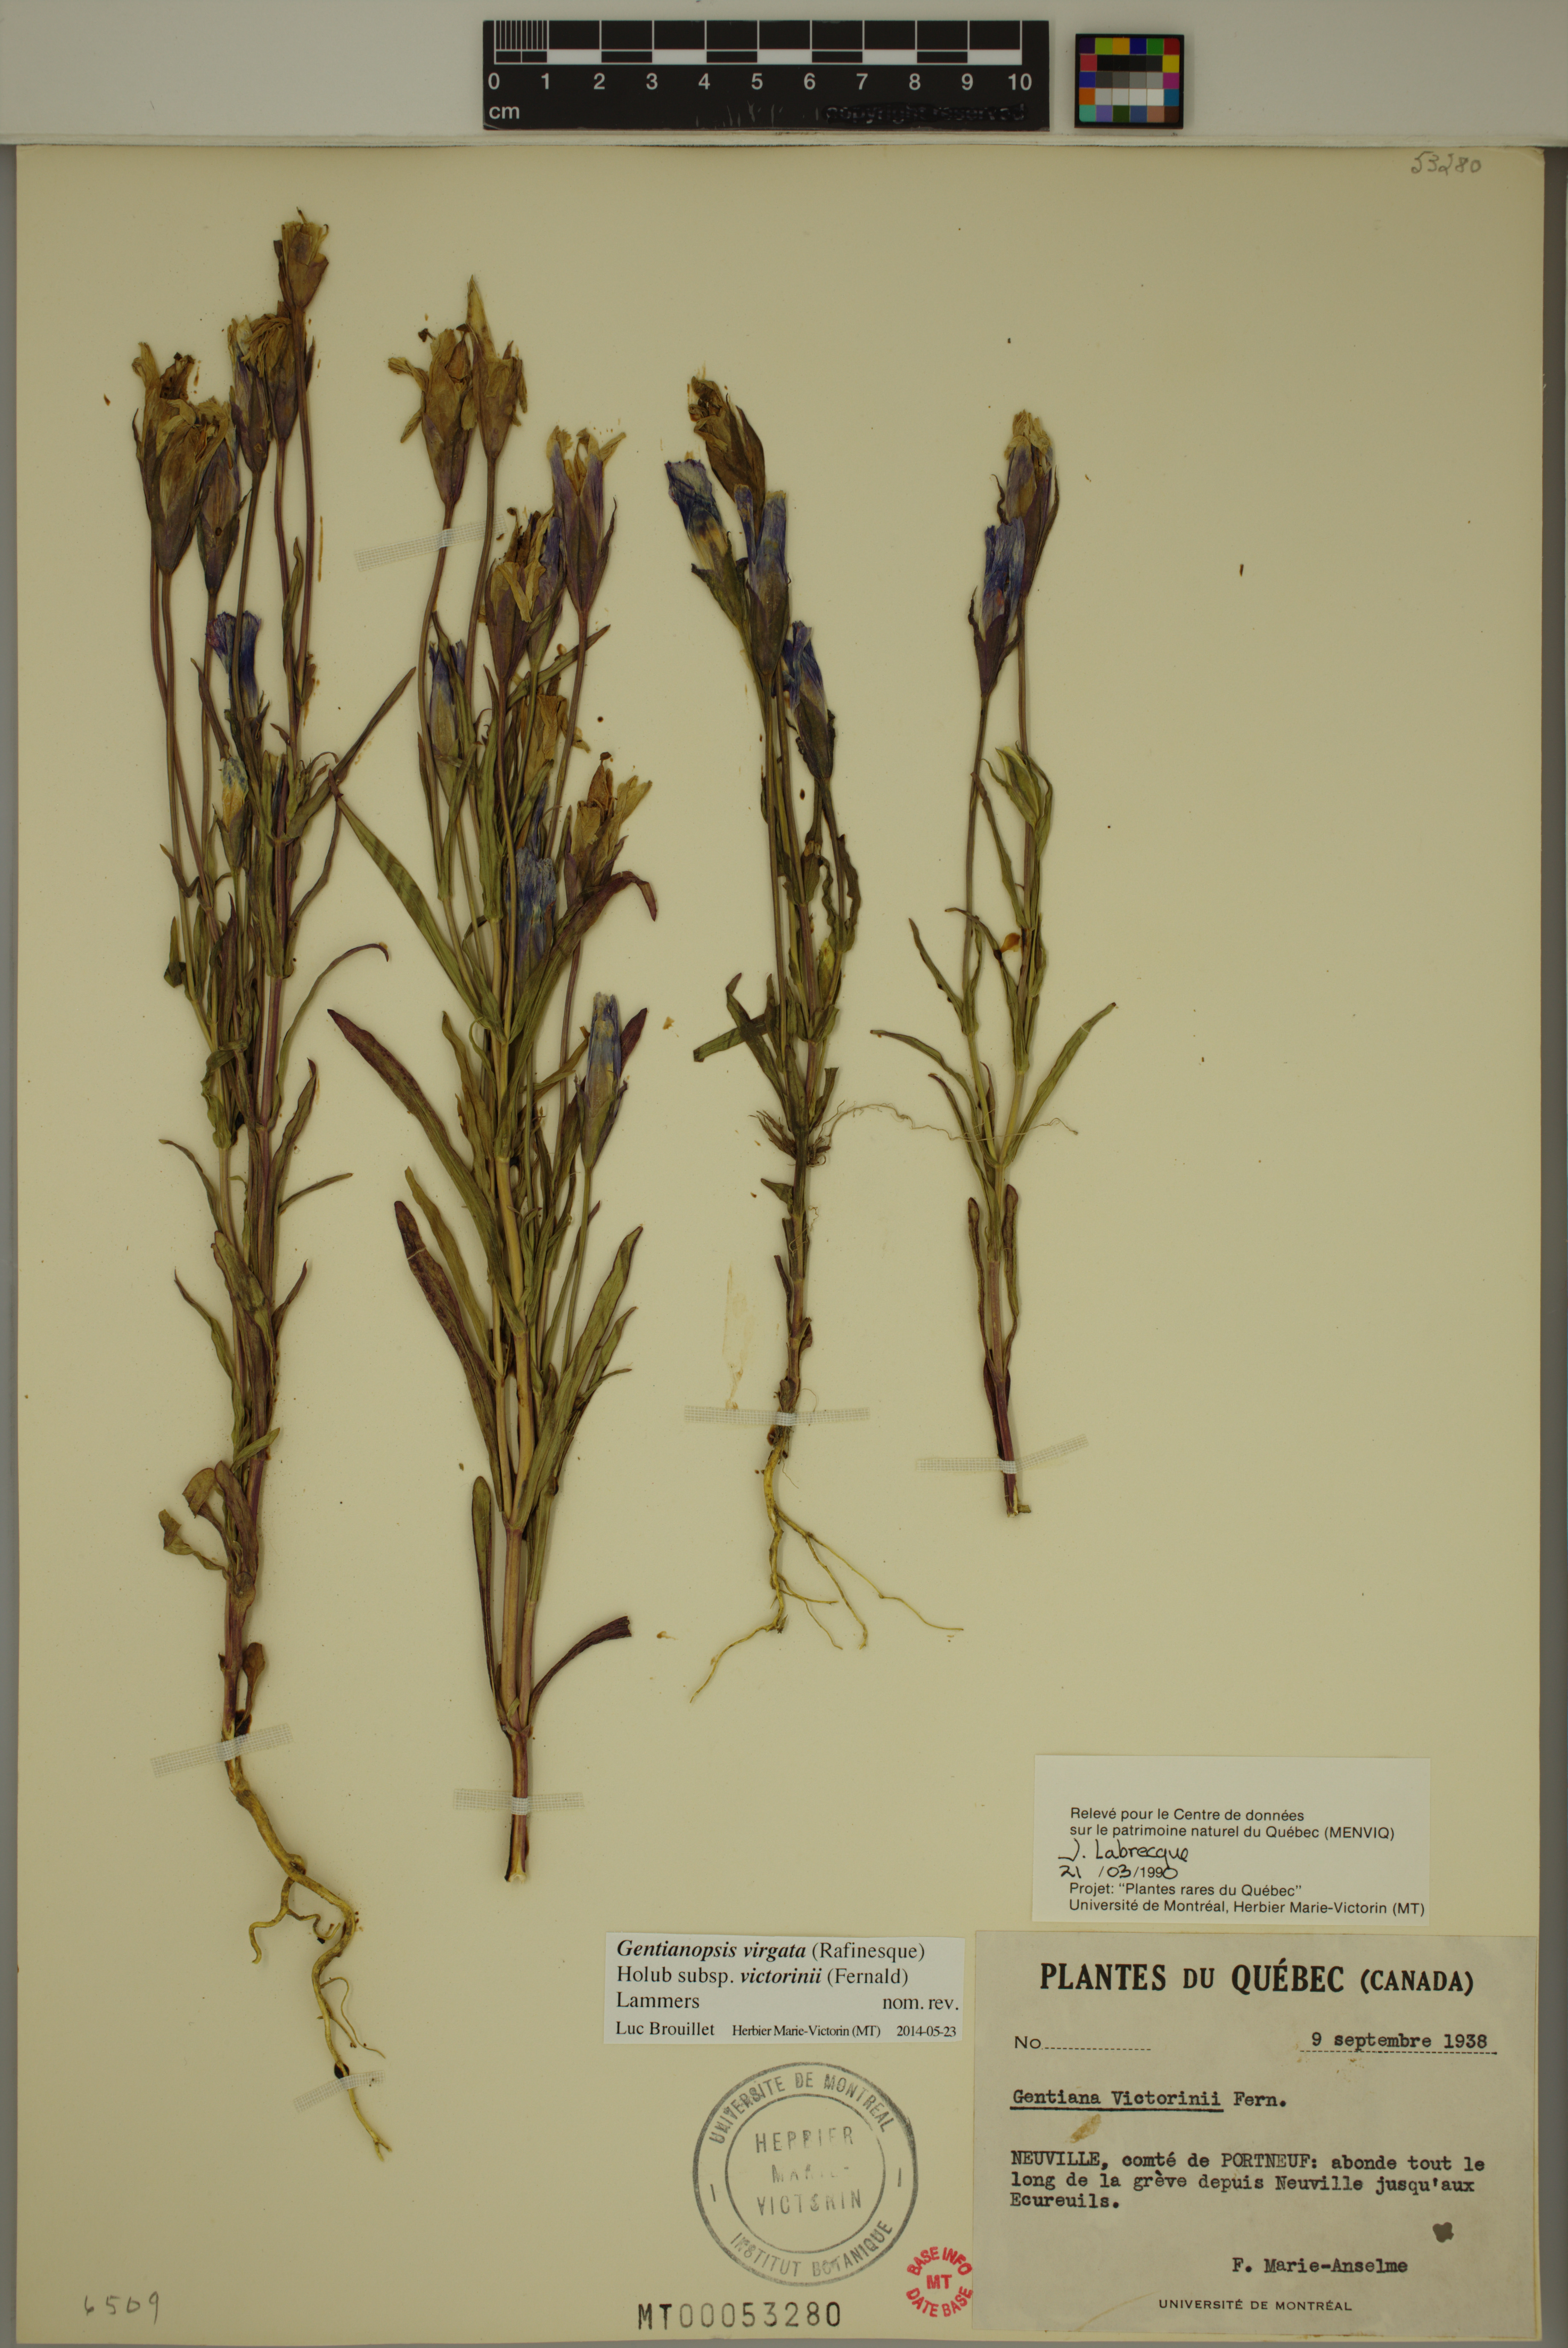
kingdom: Plantae
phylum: Tracheophyta
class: Magnoliopsida
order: Gentianales
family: Gentianaceae
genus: Gentianopsis
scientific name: Gentianopsis victorinii
